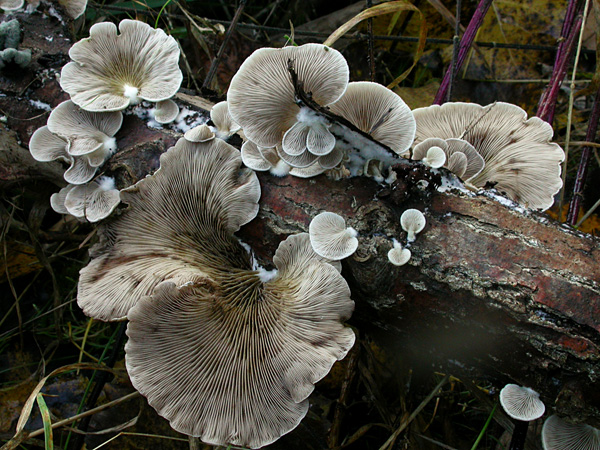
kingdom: Fungi
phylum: Basidiomycota
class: Agaricomycetes
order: Agaricales
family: Crepidotaceae
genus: Crepidotus
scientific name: Crepidotus mollis
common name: blød muslingesvamp
